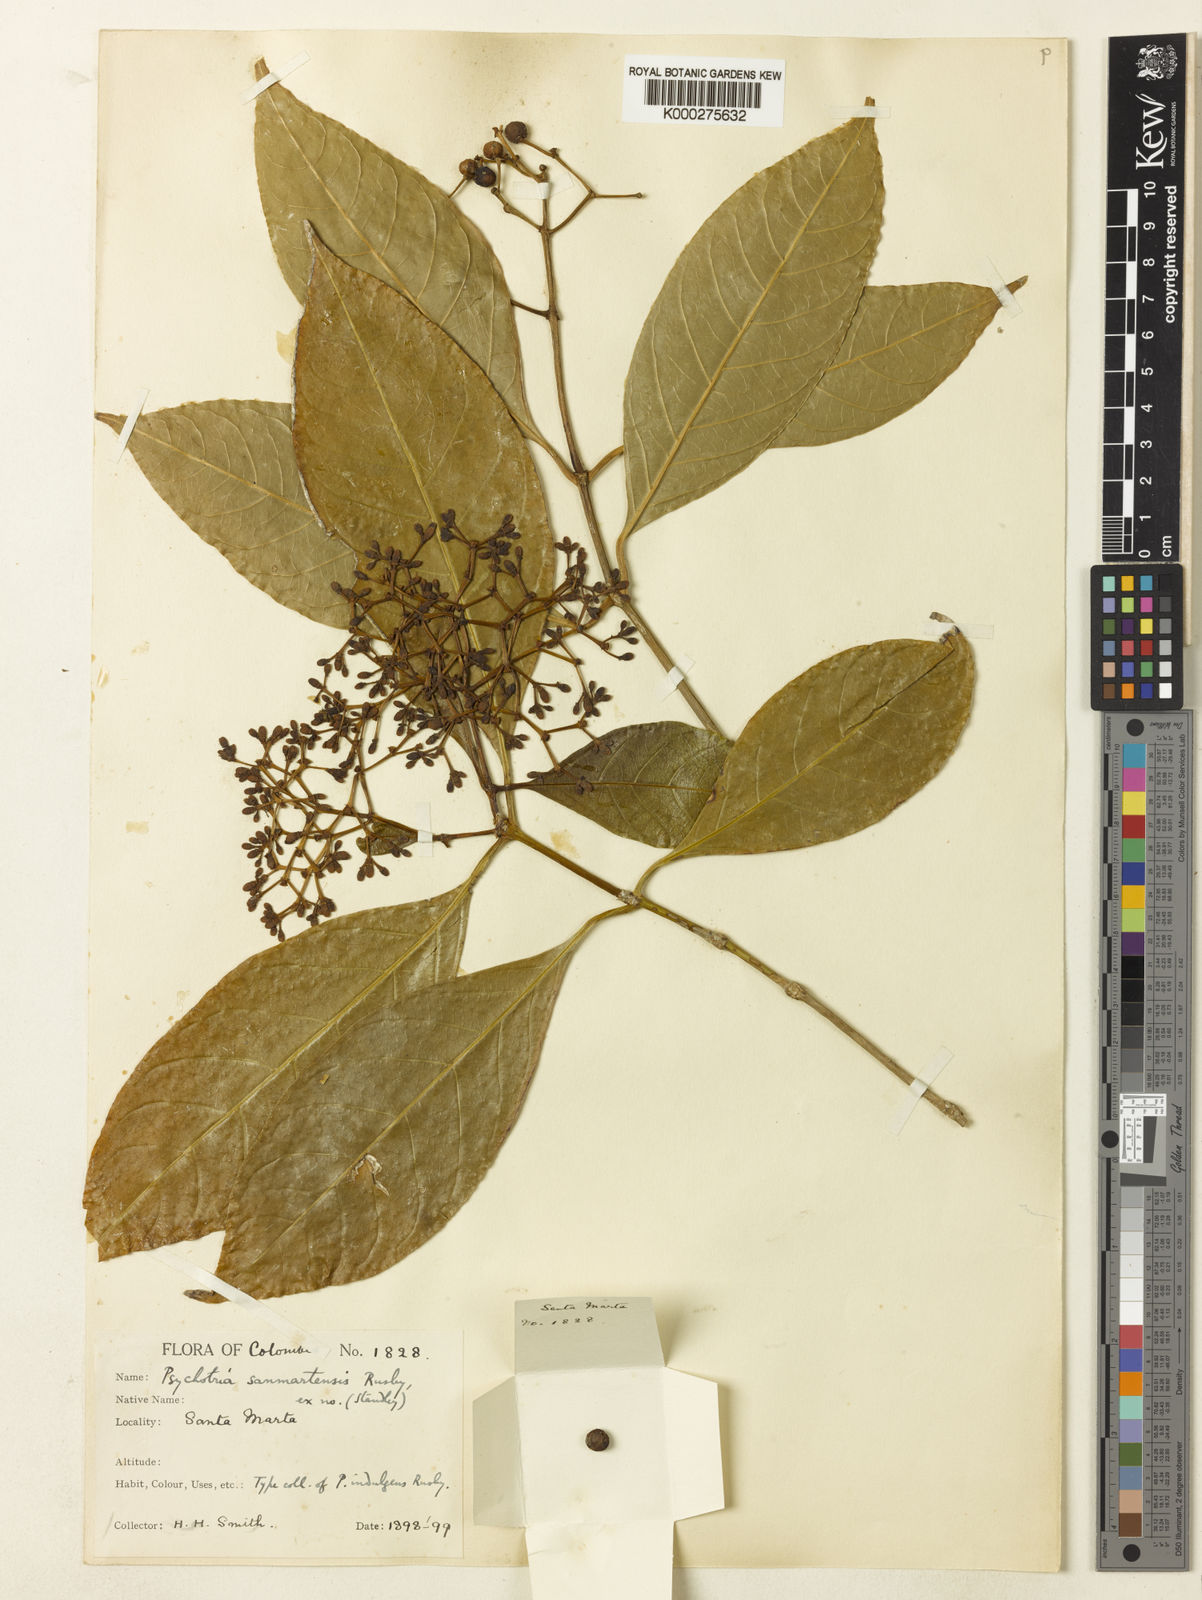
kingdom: Plantae
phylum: Tracheophyta
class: Magnoliopsida
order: Gentianales
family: Rubiaceae
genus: Rudgea
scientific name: Rudgea marginata
